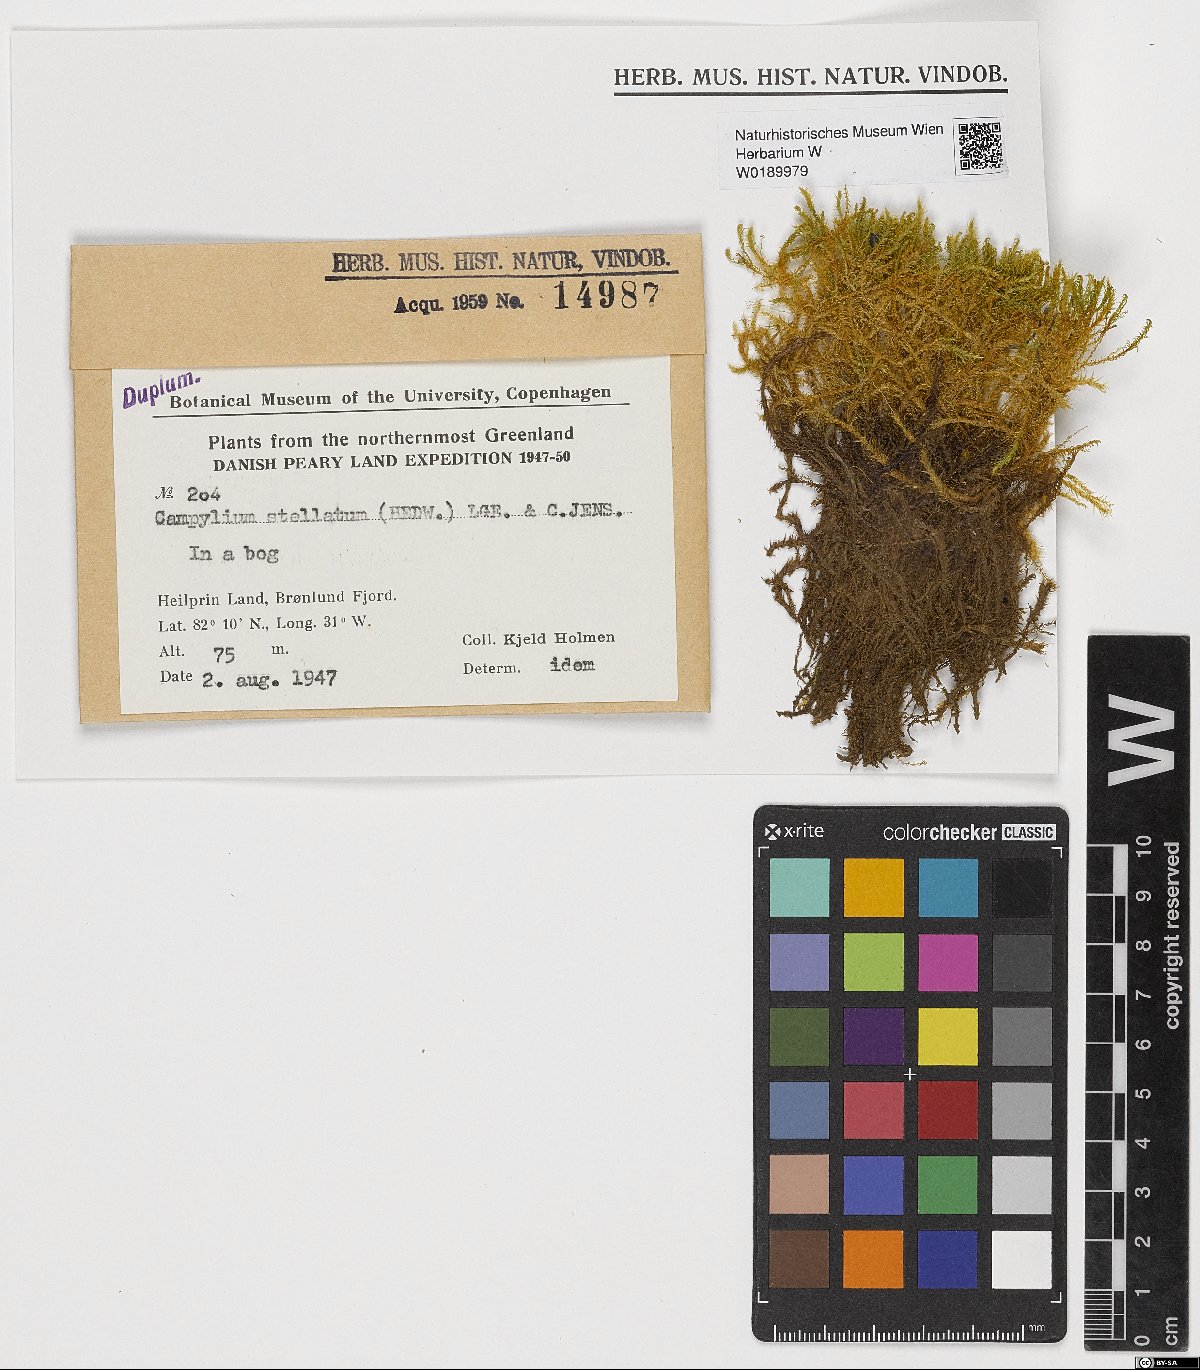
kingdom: Plantae
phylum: Bryophyta
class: Bryopsida
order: Hypnales
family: Amblystegiaceae
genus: Campylium
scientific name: Campylium stellatum
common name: Yellow starry fen moss
